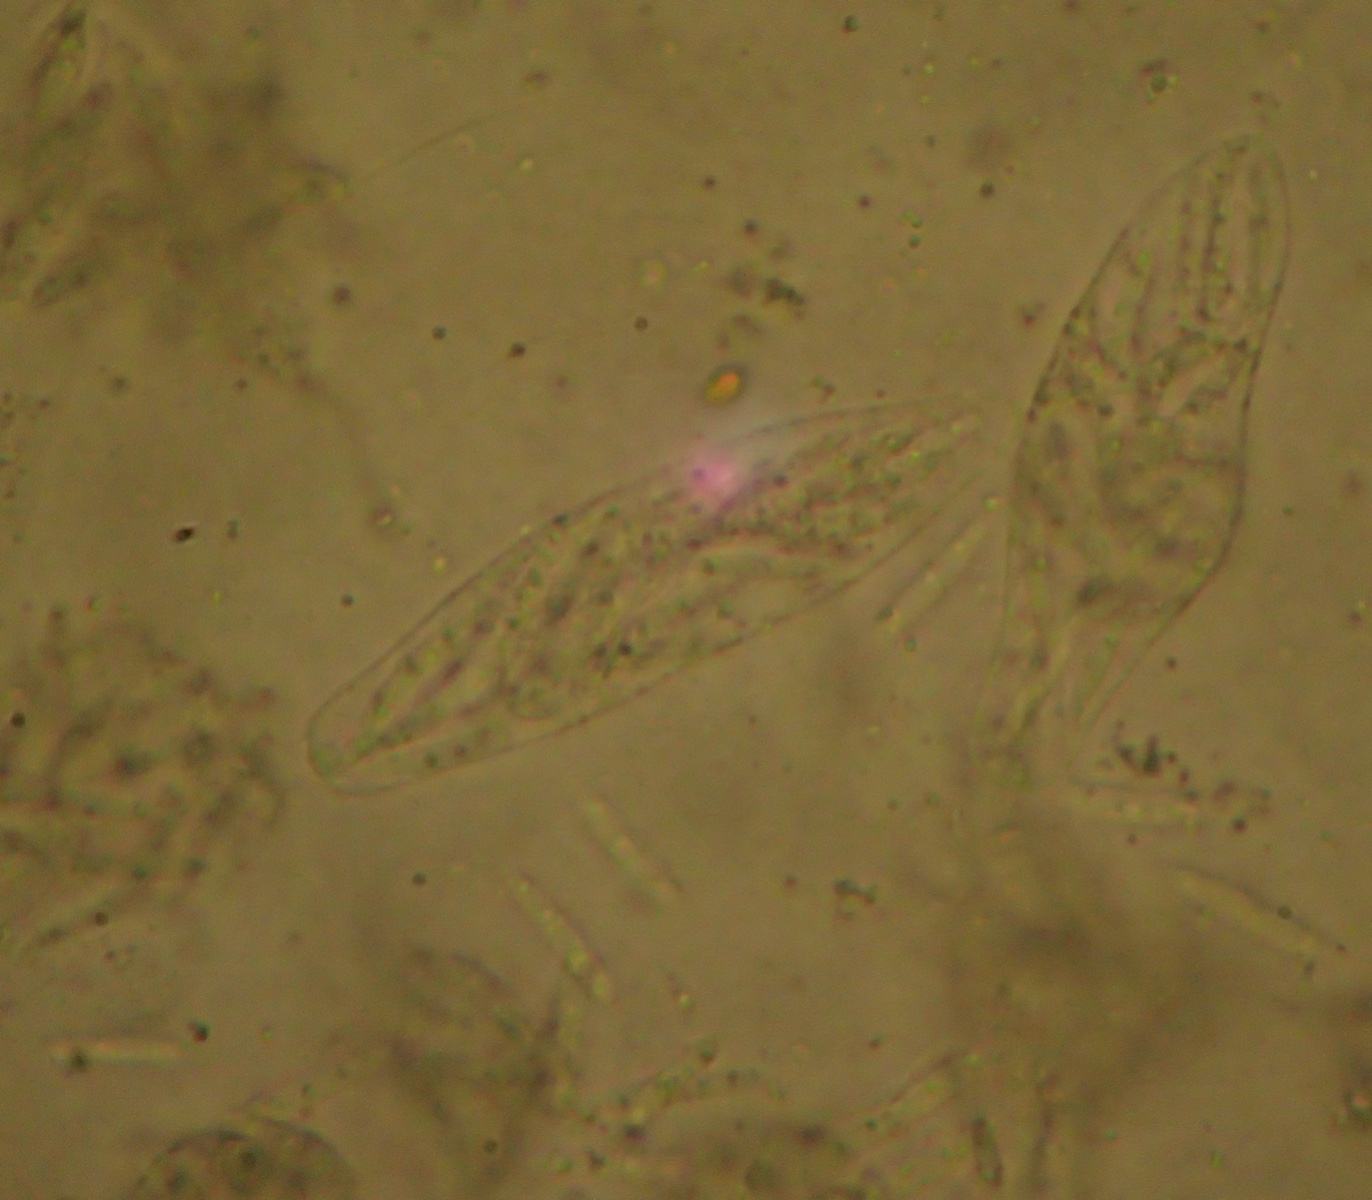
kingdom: Fungi
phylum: Ascomycota
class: Sordariomycetes
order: Diaporthales
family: Gnomoniaceae
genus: Ditopella
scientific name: Ditopella ditopa
